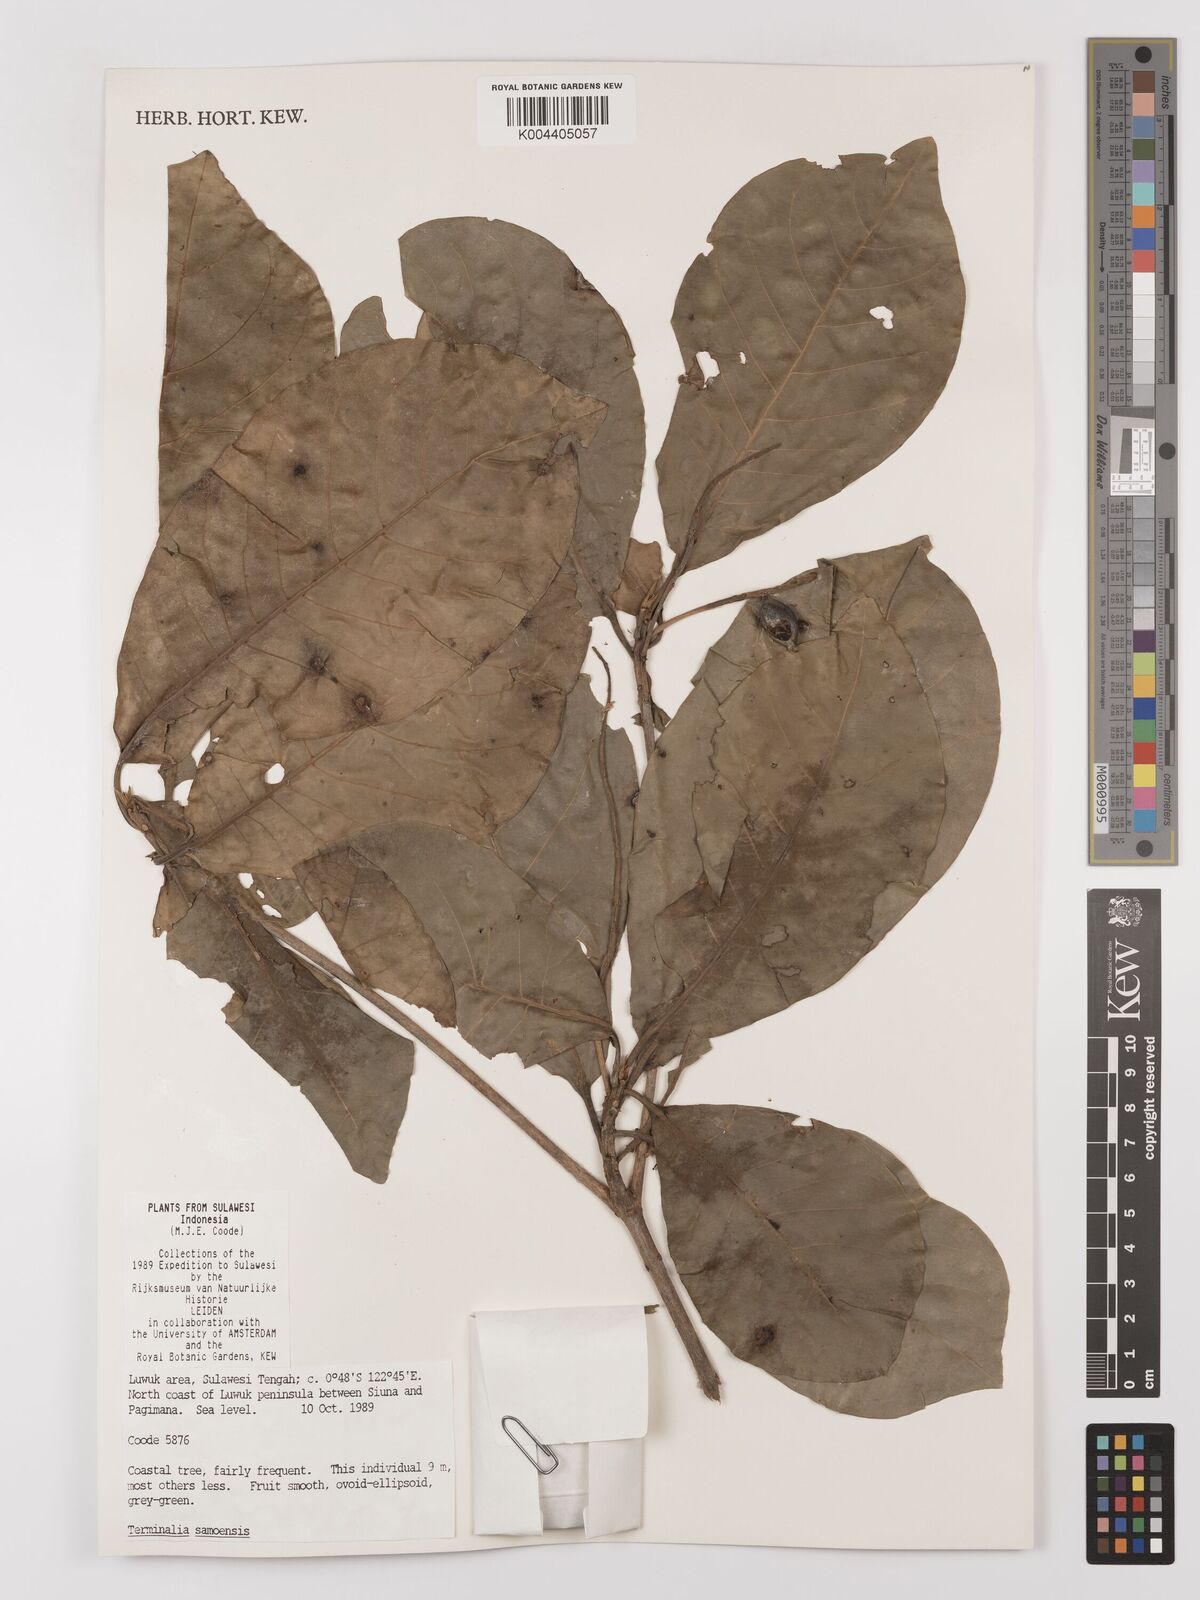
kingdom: Plantae
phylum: Tracheophyta
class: Magnoliopsida
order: Myrtales
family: Combretaceae
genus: Terminalia
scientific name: Terminalia samoensis
